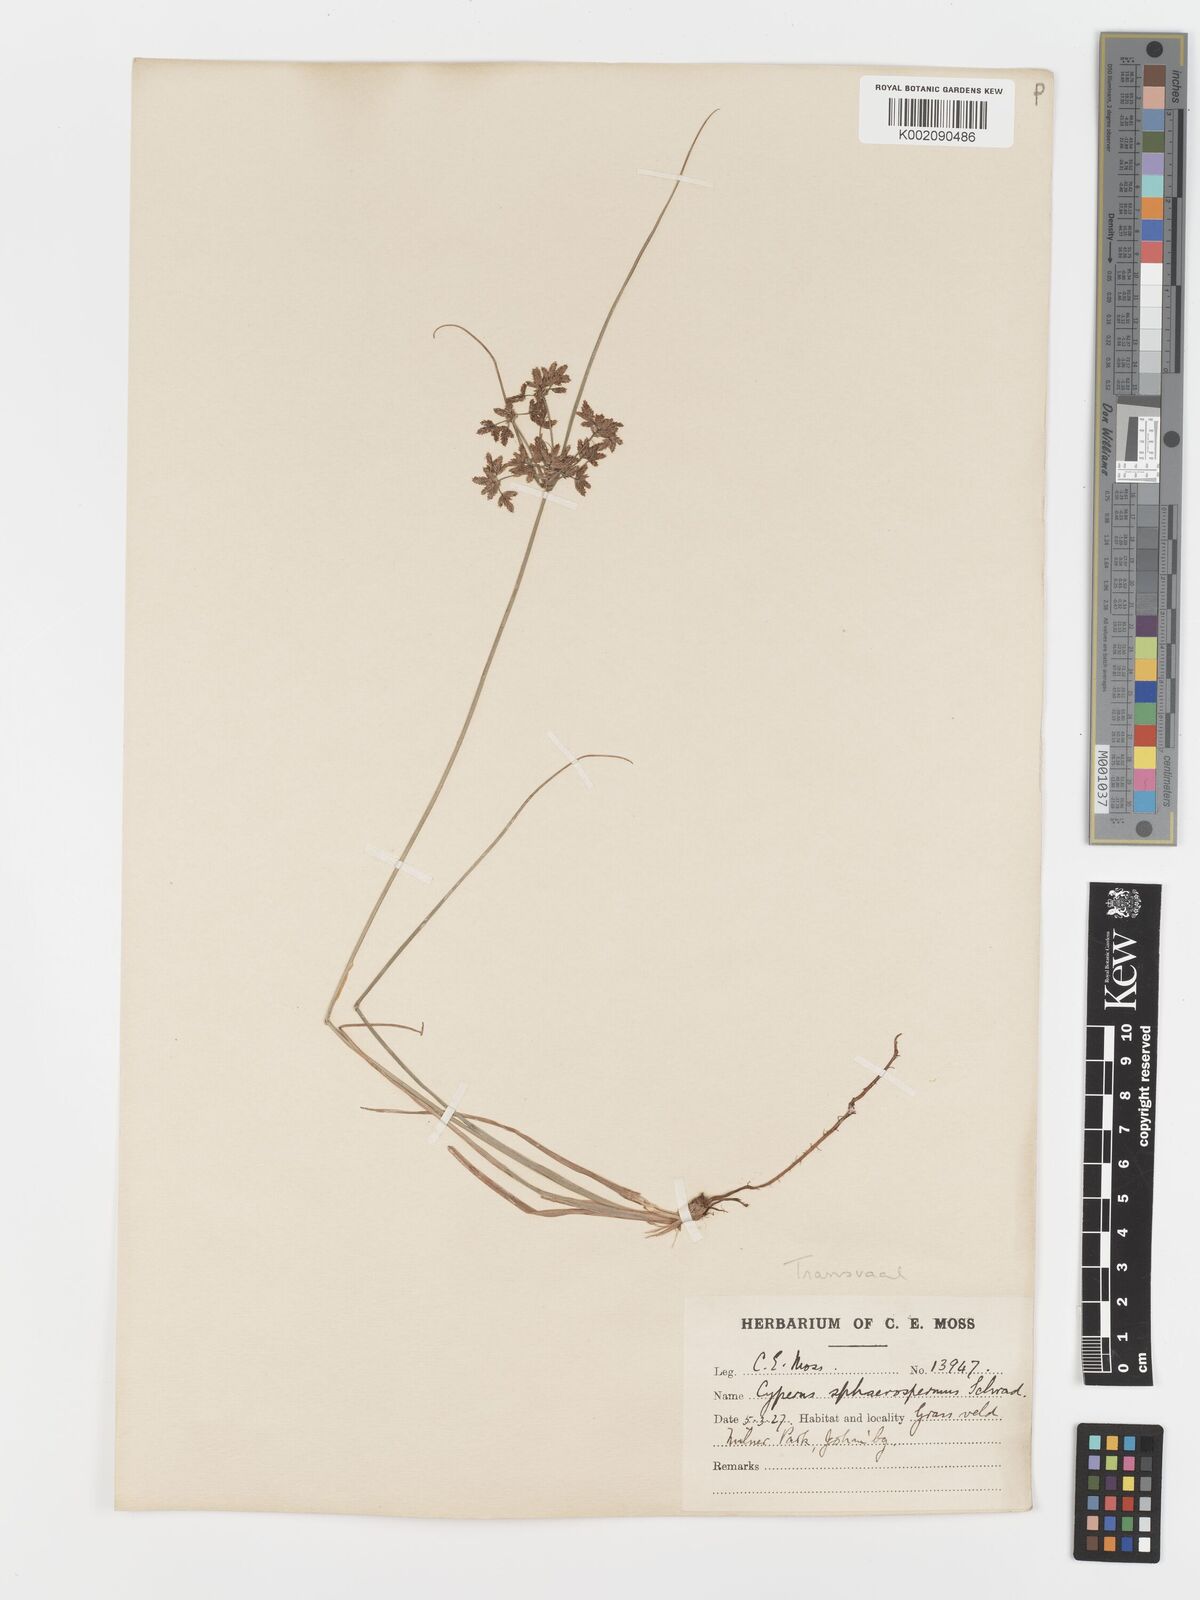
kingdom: Plantae
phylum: Tracheophyta
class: Liliopsida
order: Poales
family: Cyperaceae
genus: Cyperus
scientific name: Cyperus sphaerospermus
